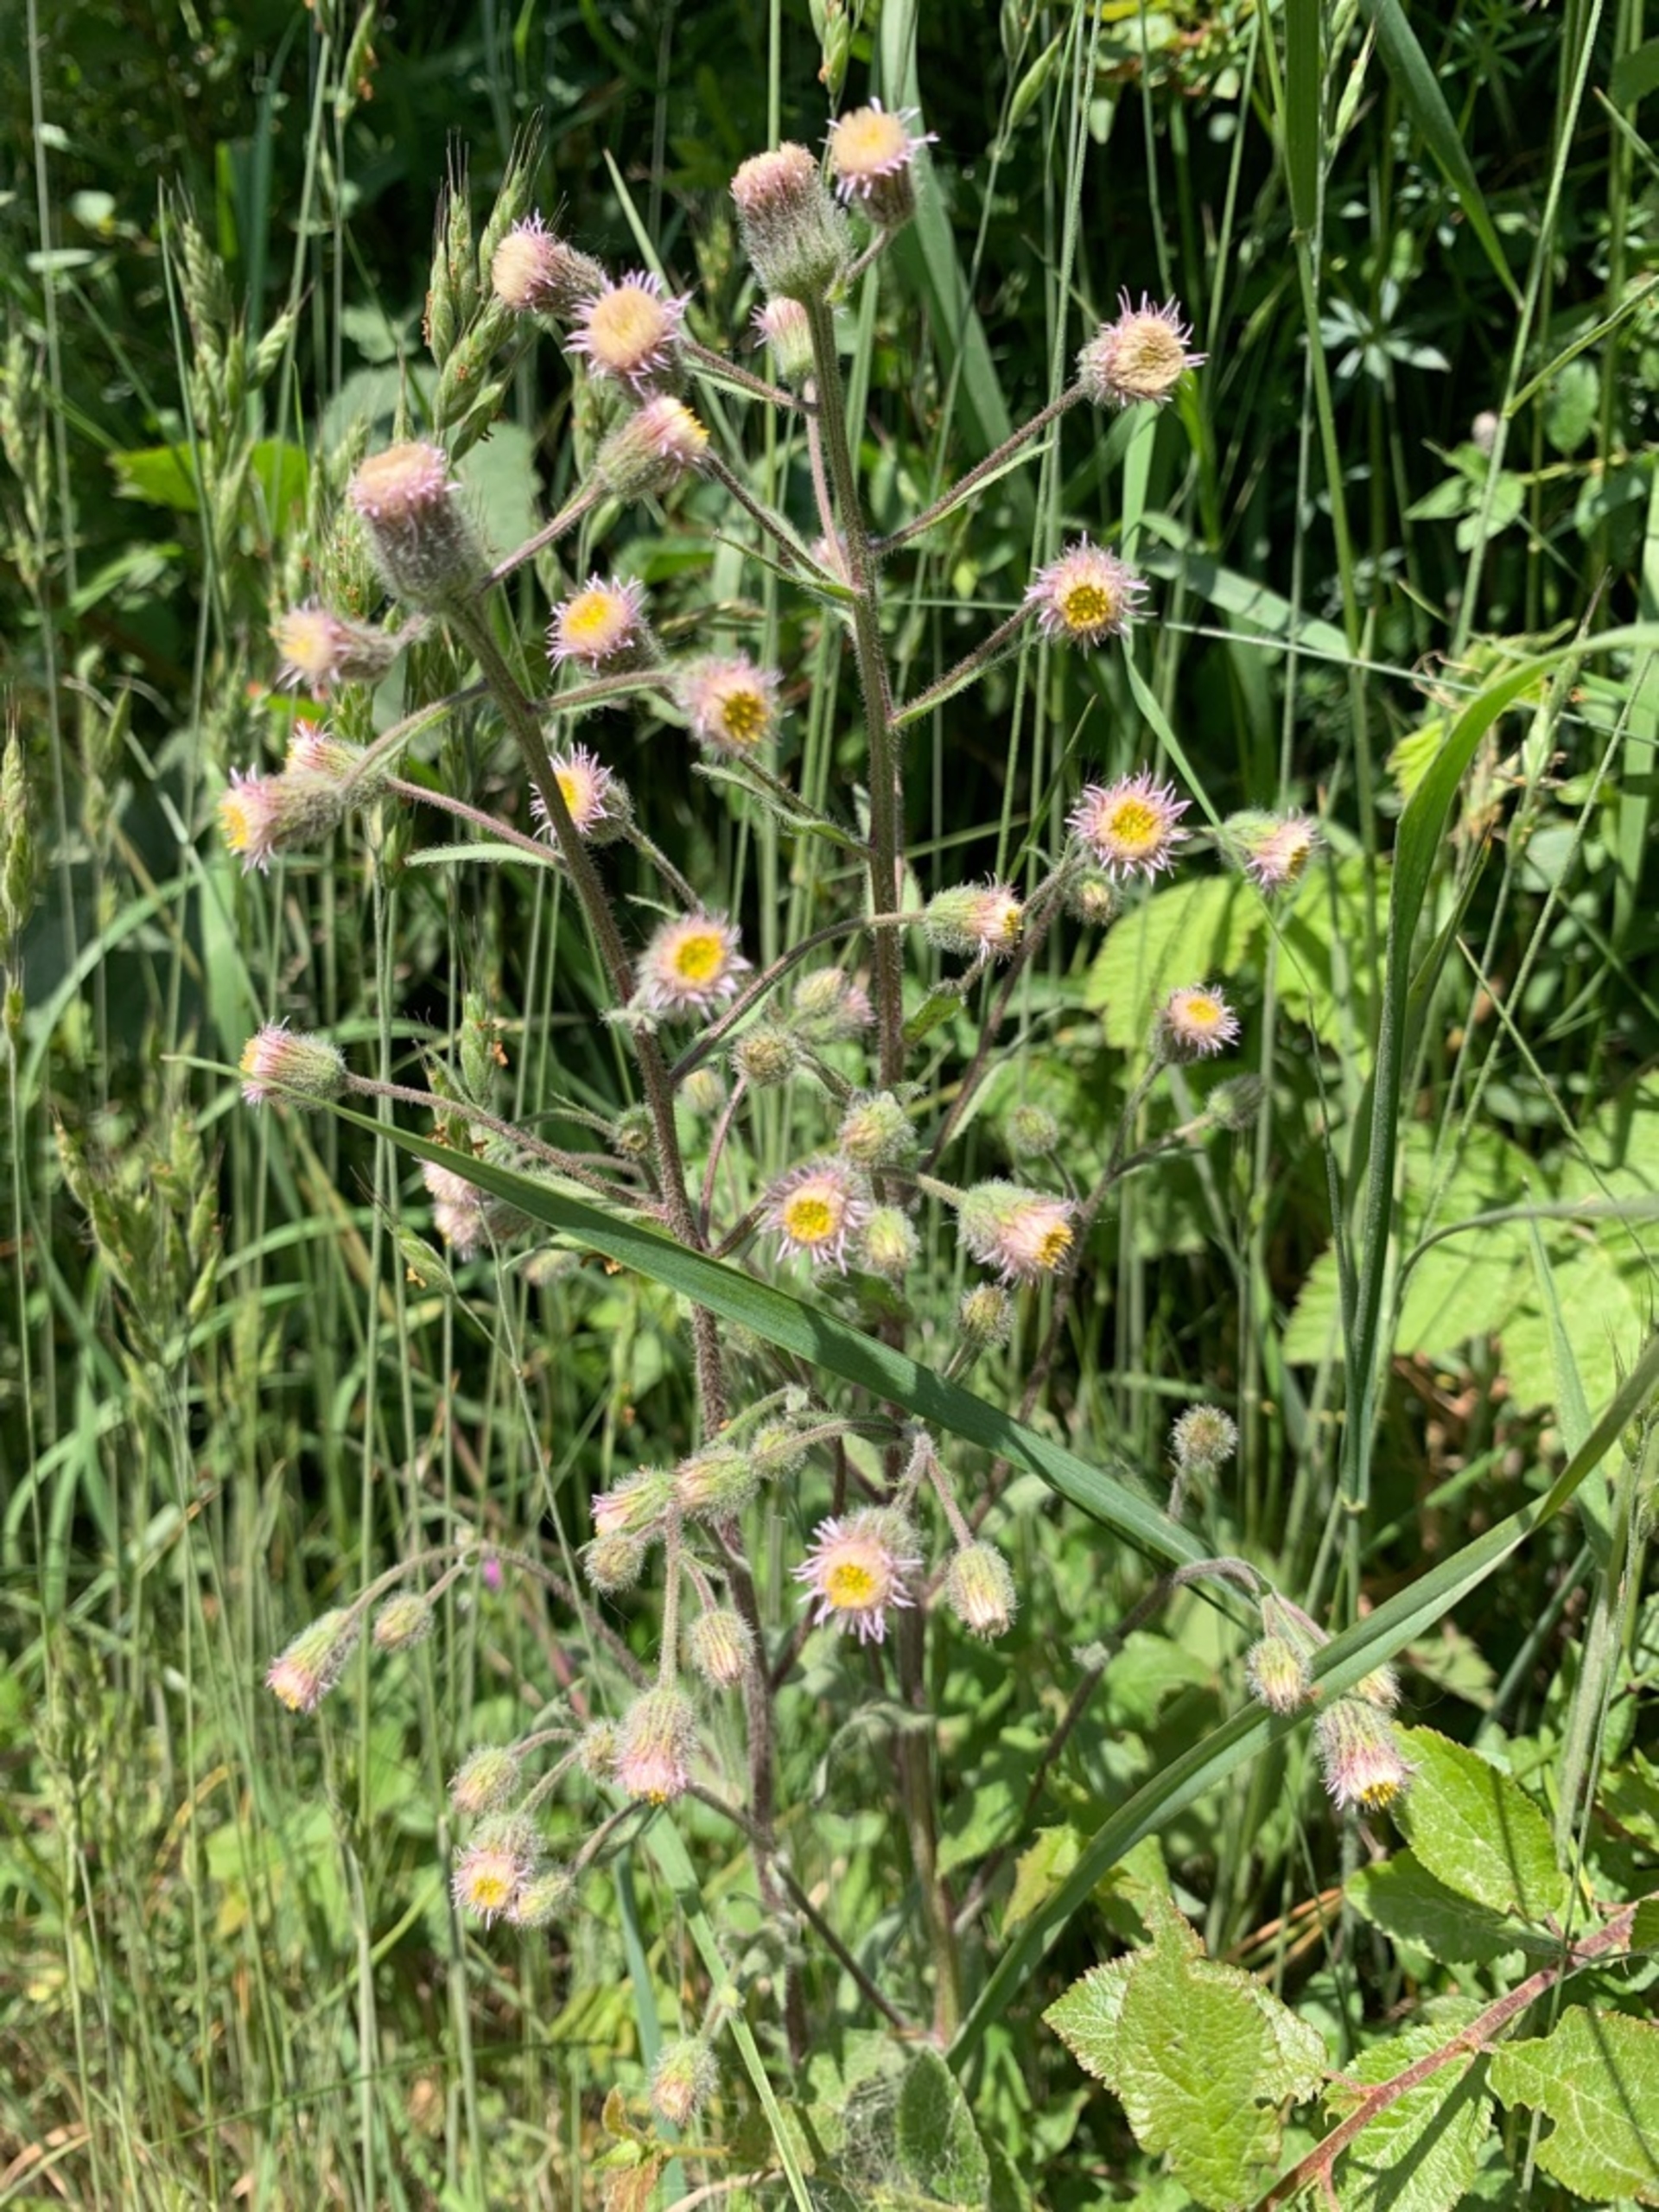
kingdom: Plantae
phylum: Tracheophyta
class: Magnoliopsida
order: Asterales
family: Asteraceae
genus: Erigeron
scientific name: Erigeron acris
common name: Bitter bakkestjerne
